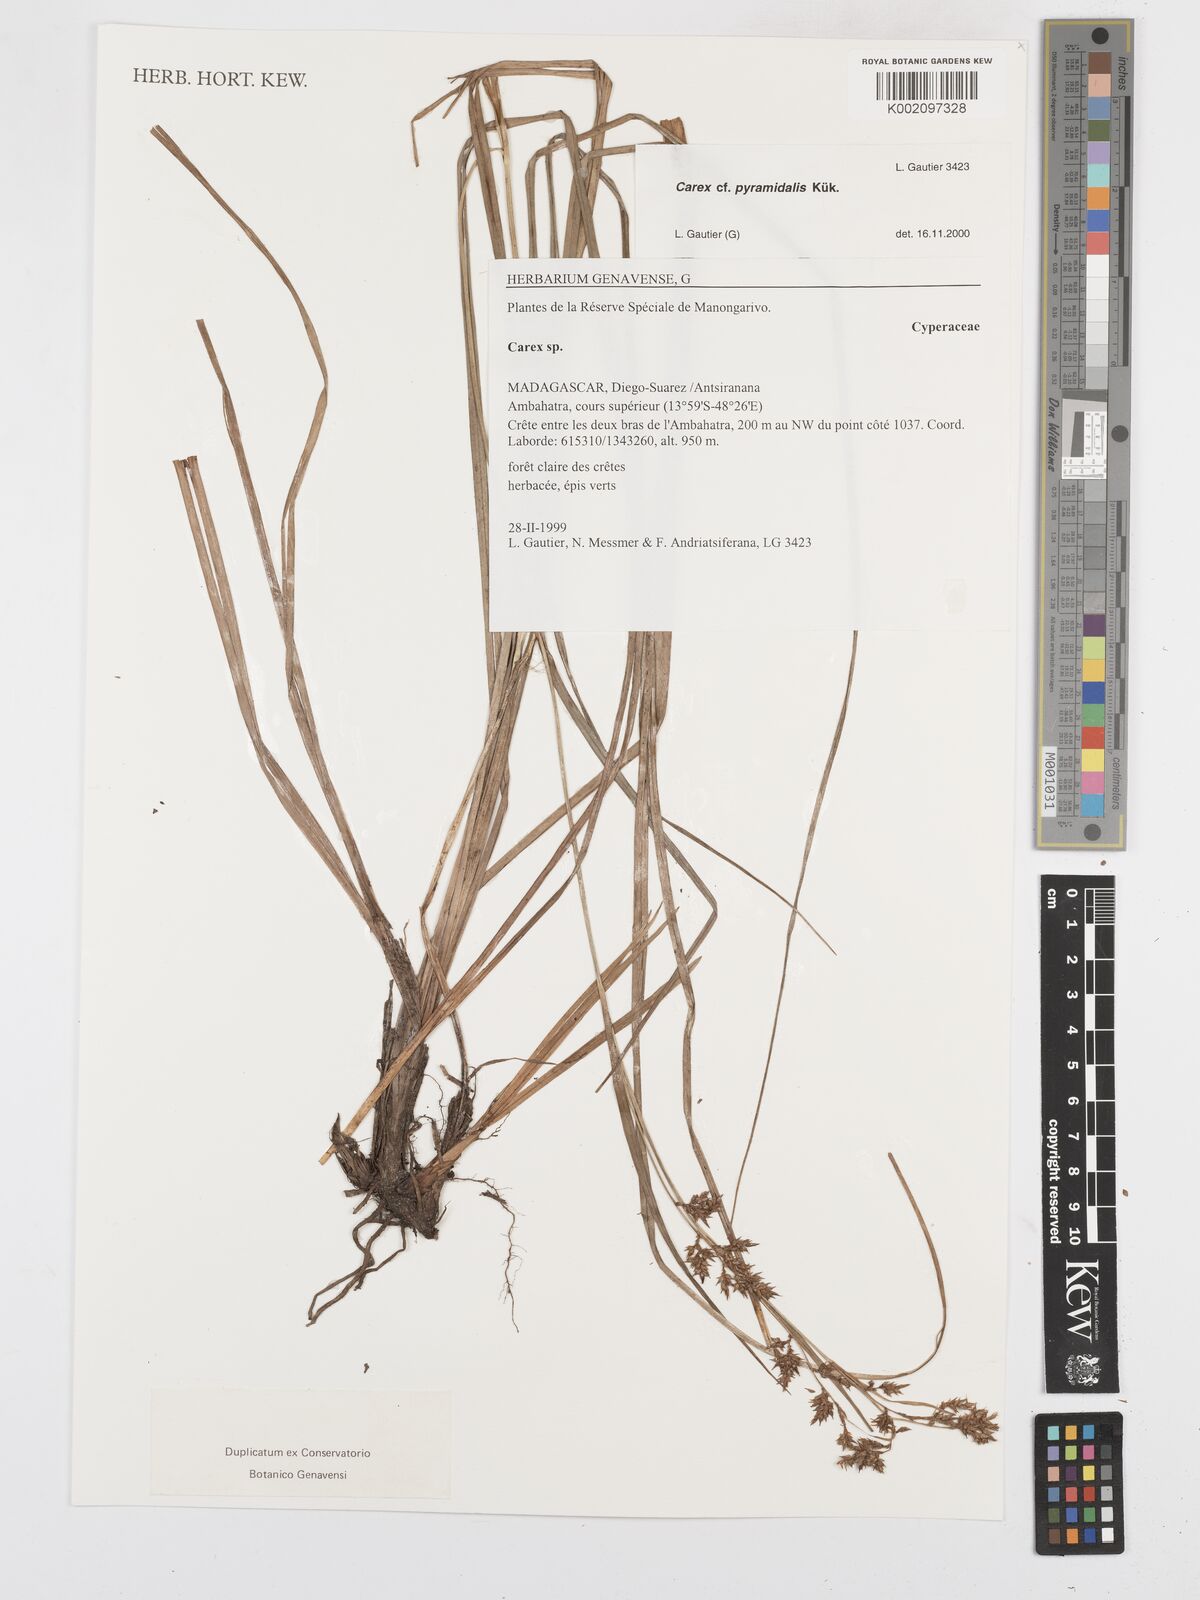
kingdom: Plantae
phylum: Tracheophyta
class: Liliopsida
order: Poales
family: Cyperaceae
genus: Carex
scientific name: Carex pyramidalis
